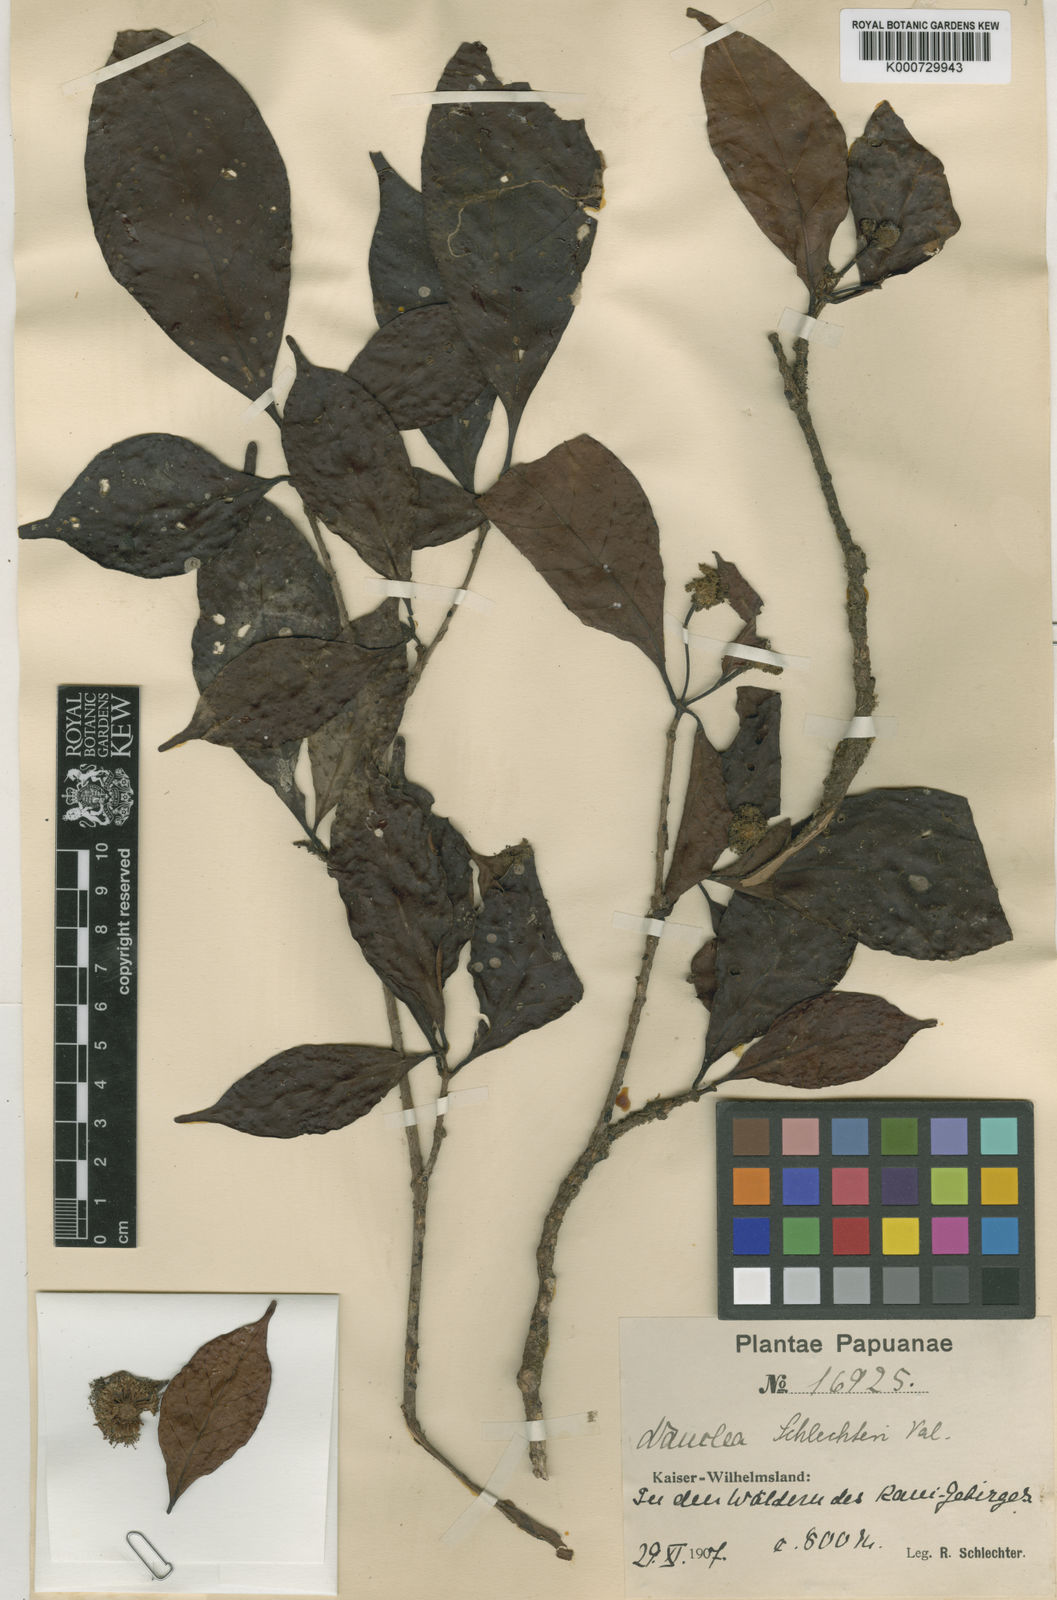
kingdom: Plantae
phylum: Tracheophyta
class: Magnoliopsida
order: Gentianales
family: Rubiaceae
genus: Neonauclea
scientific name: Neonauclea lanceolata
